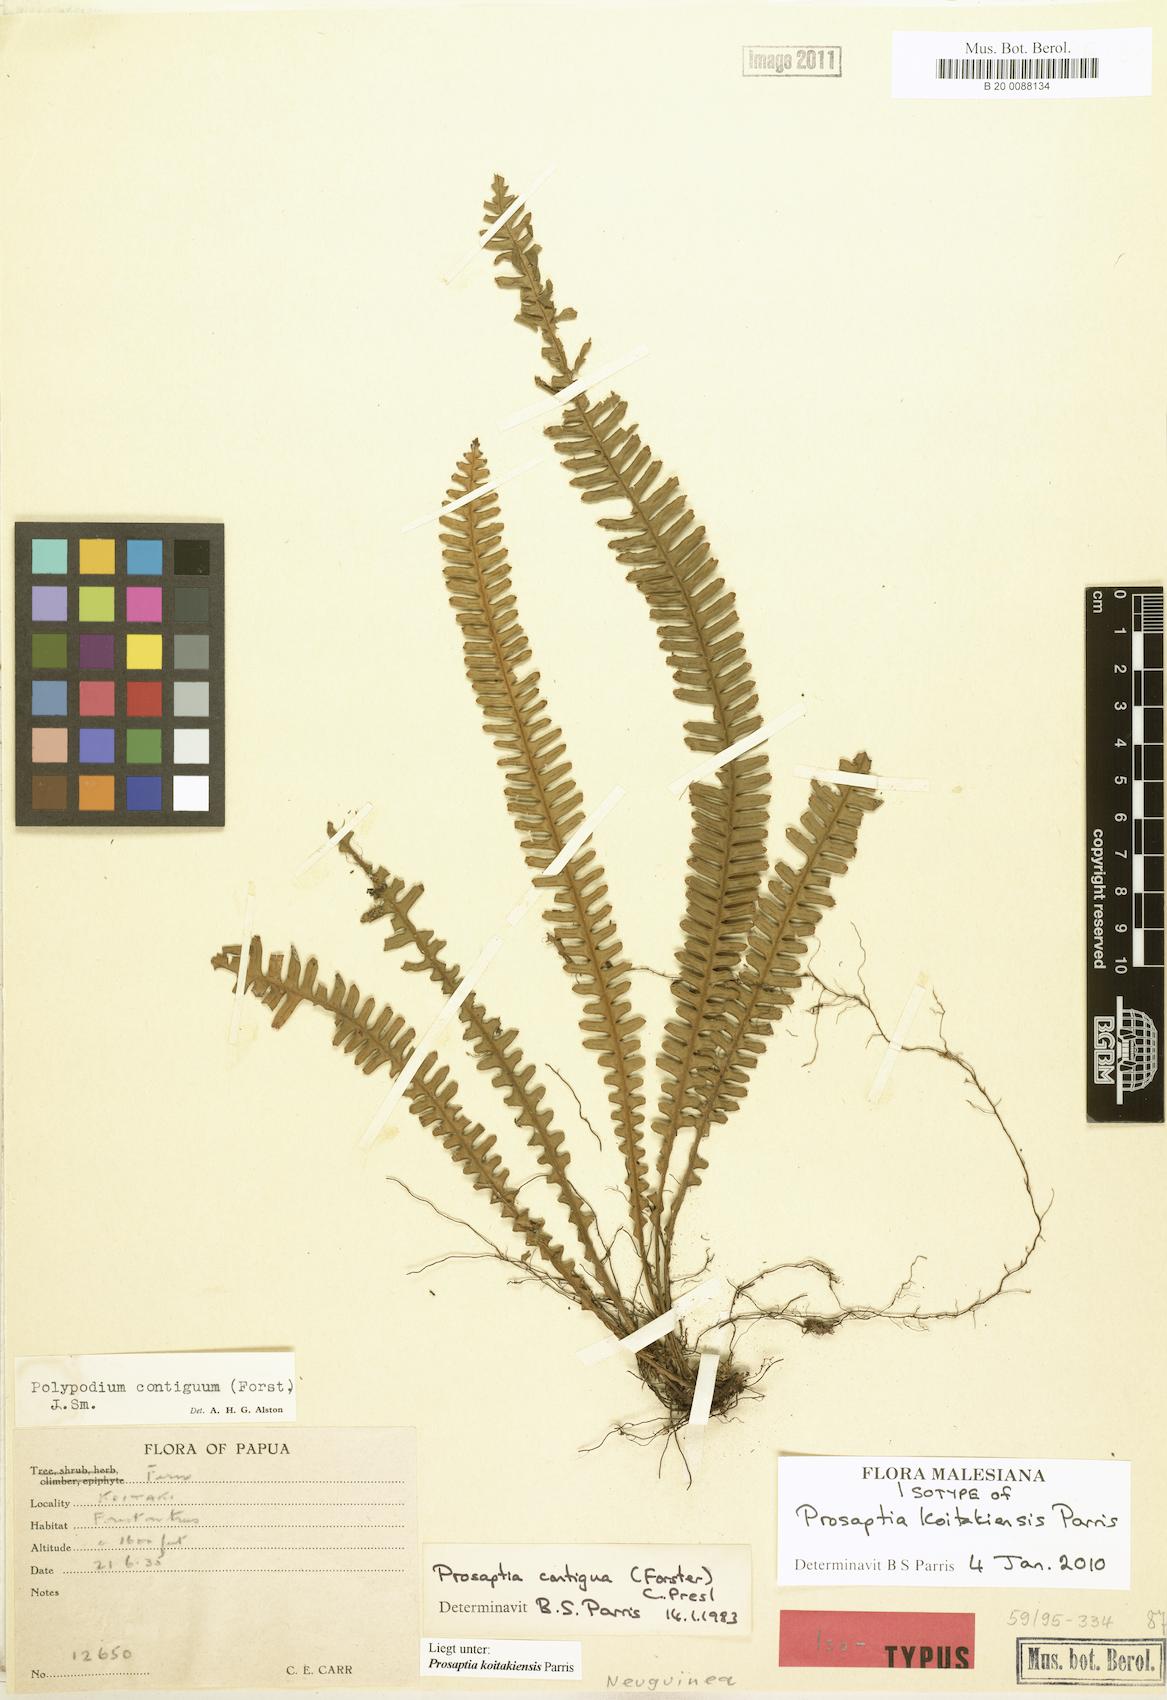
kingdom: Plantae
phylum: Tracheophyta
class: Polypodiopsida
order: Polypodiales
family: Polypodiaceae
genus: Prosaptia
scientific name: Prosaptia koitakiensis
